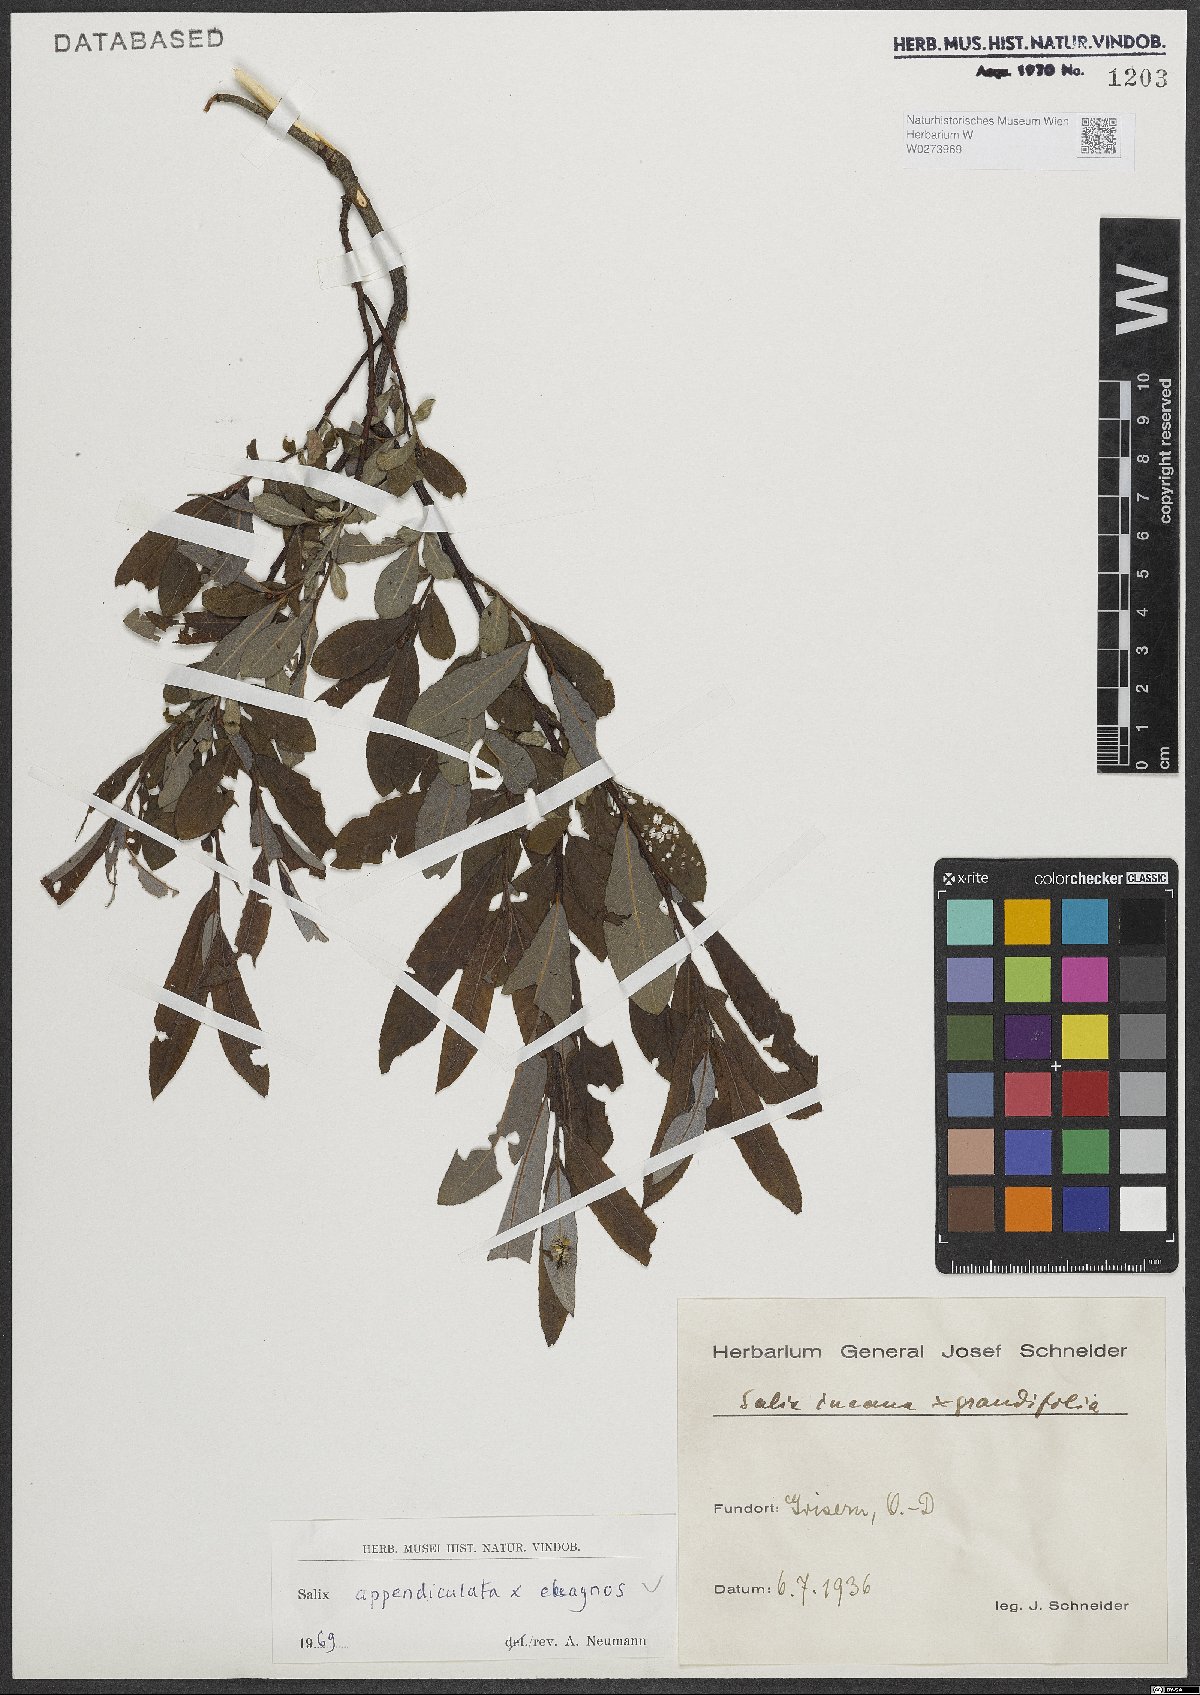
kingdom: Plantae
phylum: Tracheophyta
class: Magnoliopsida
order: Malpighiales
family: Salicaceae
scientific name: Salicaceae
